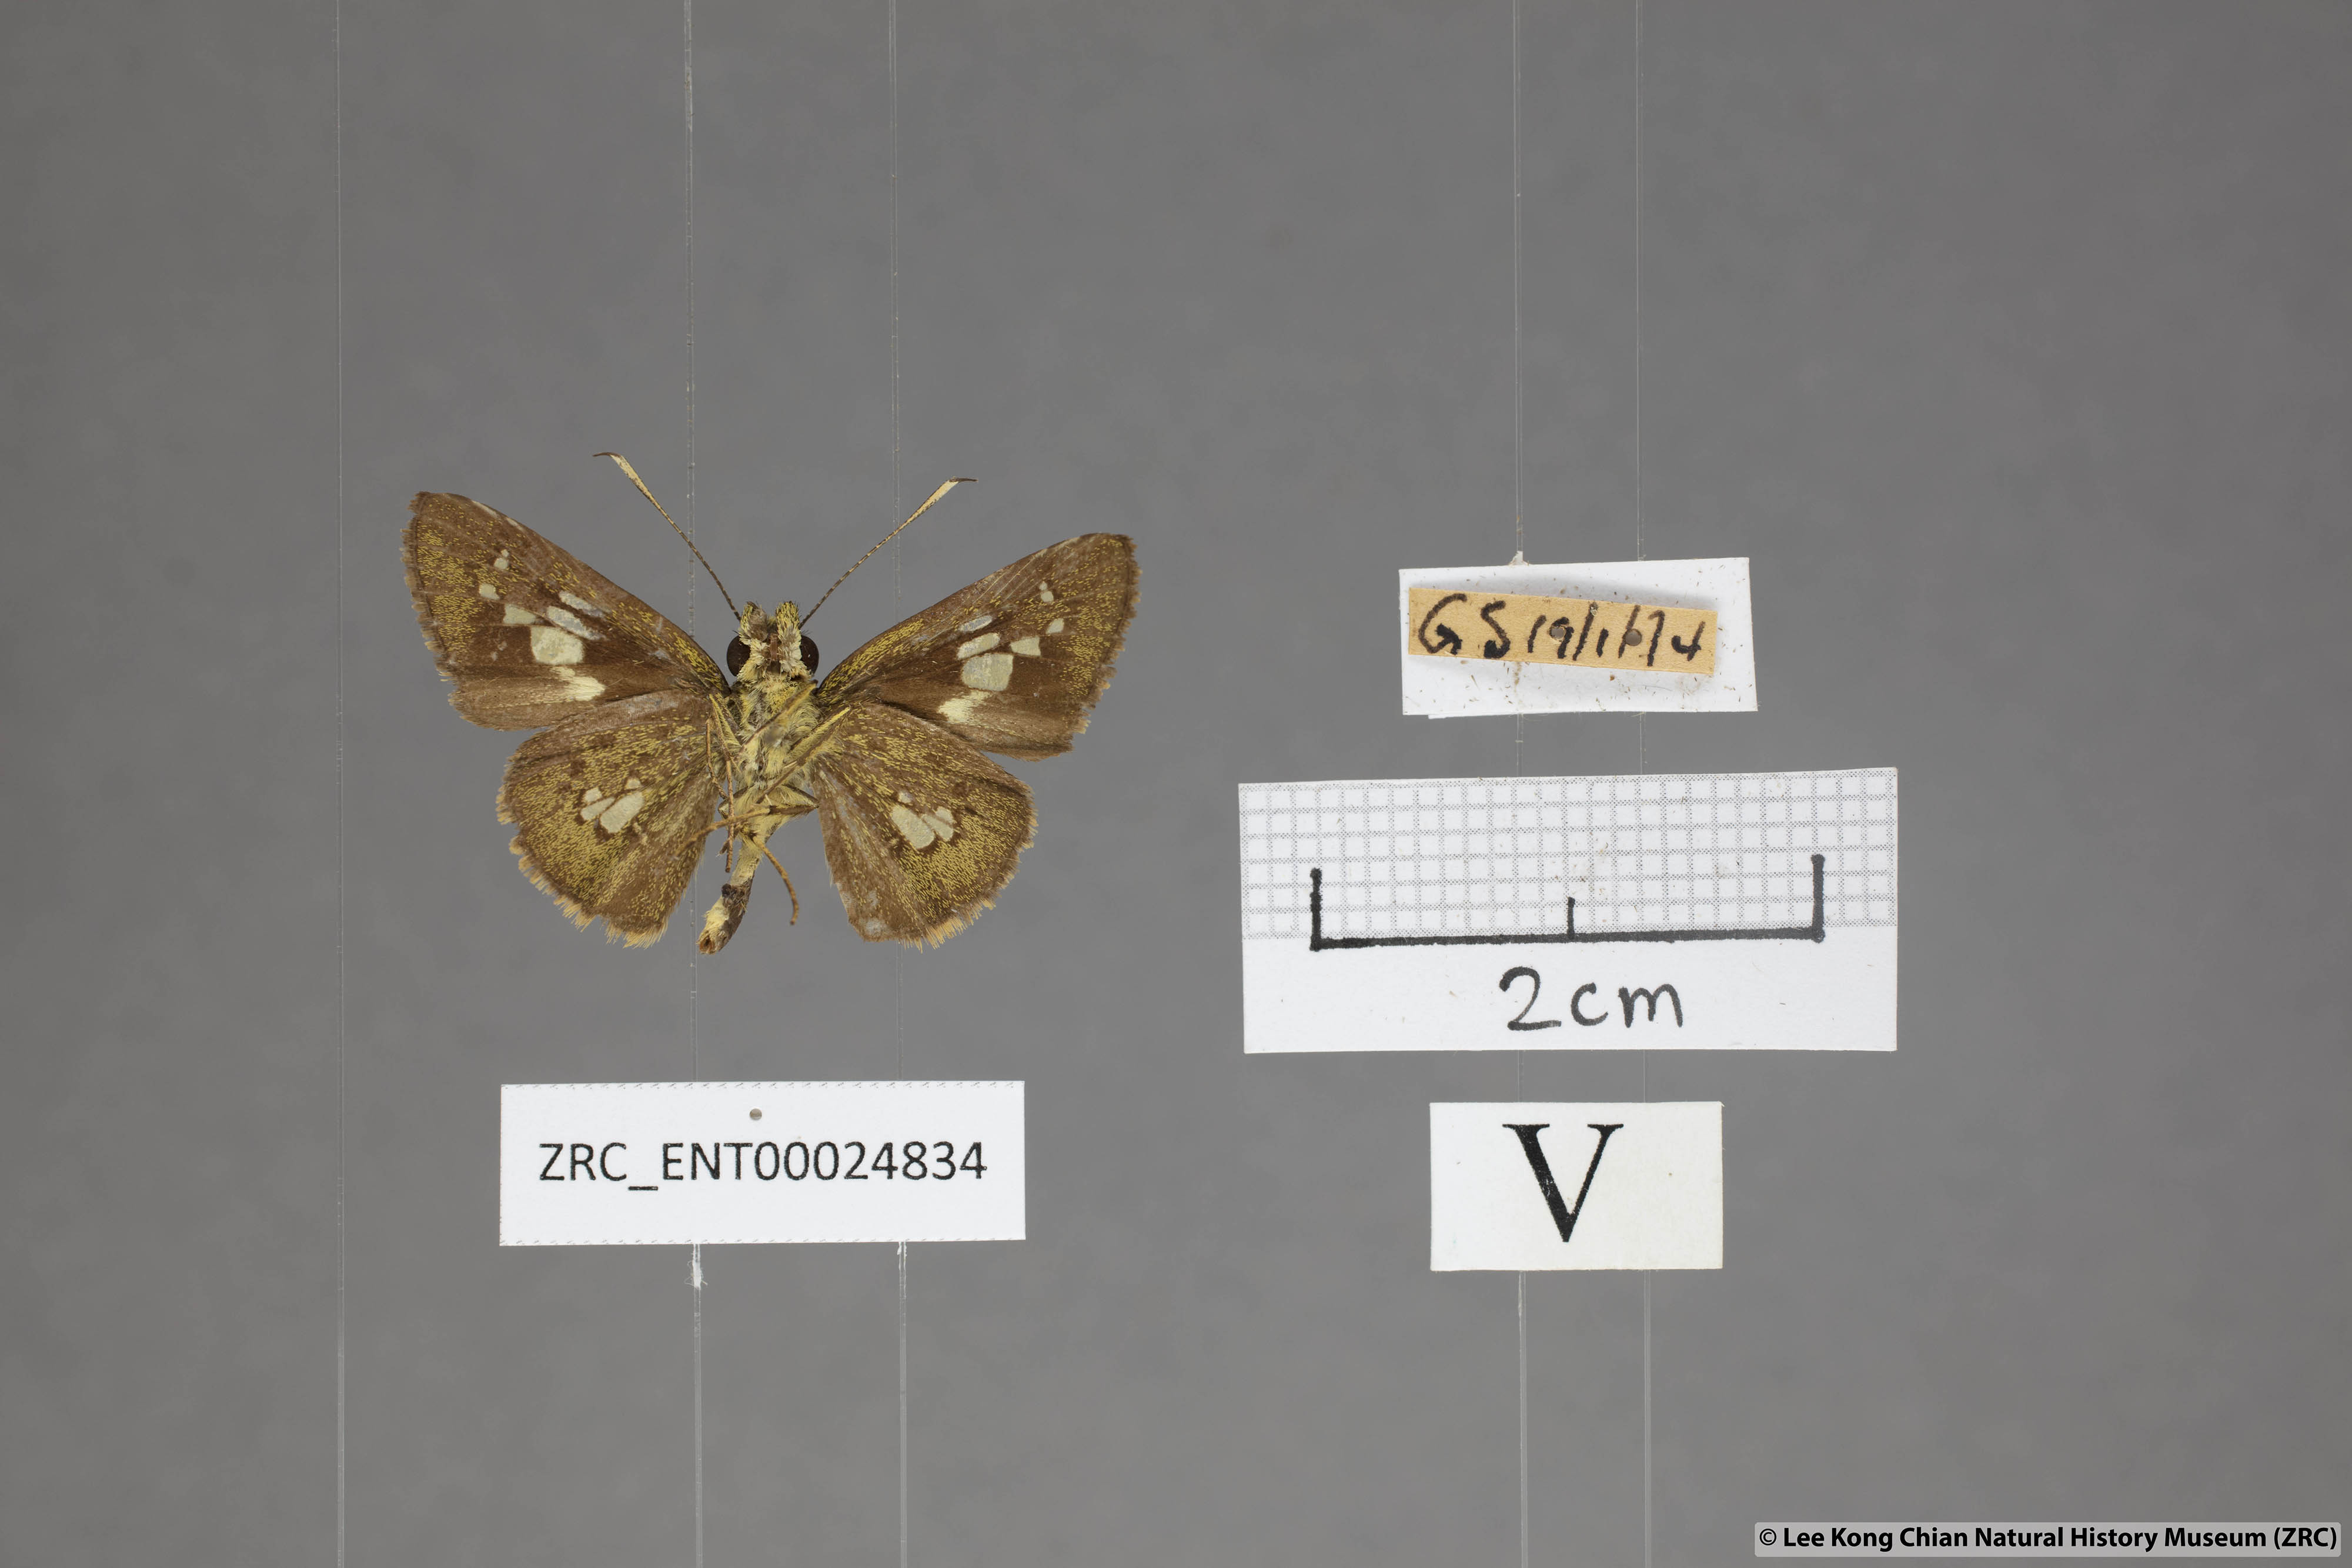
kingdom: Animalia
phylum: Arthropoda
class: Insecta
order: Lepidoptera
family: Hesperiidae
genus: Isma
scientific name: Isma bononia
